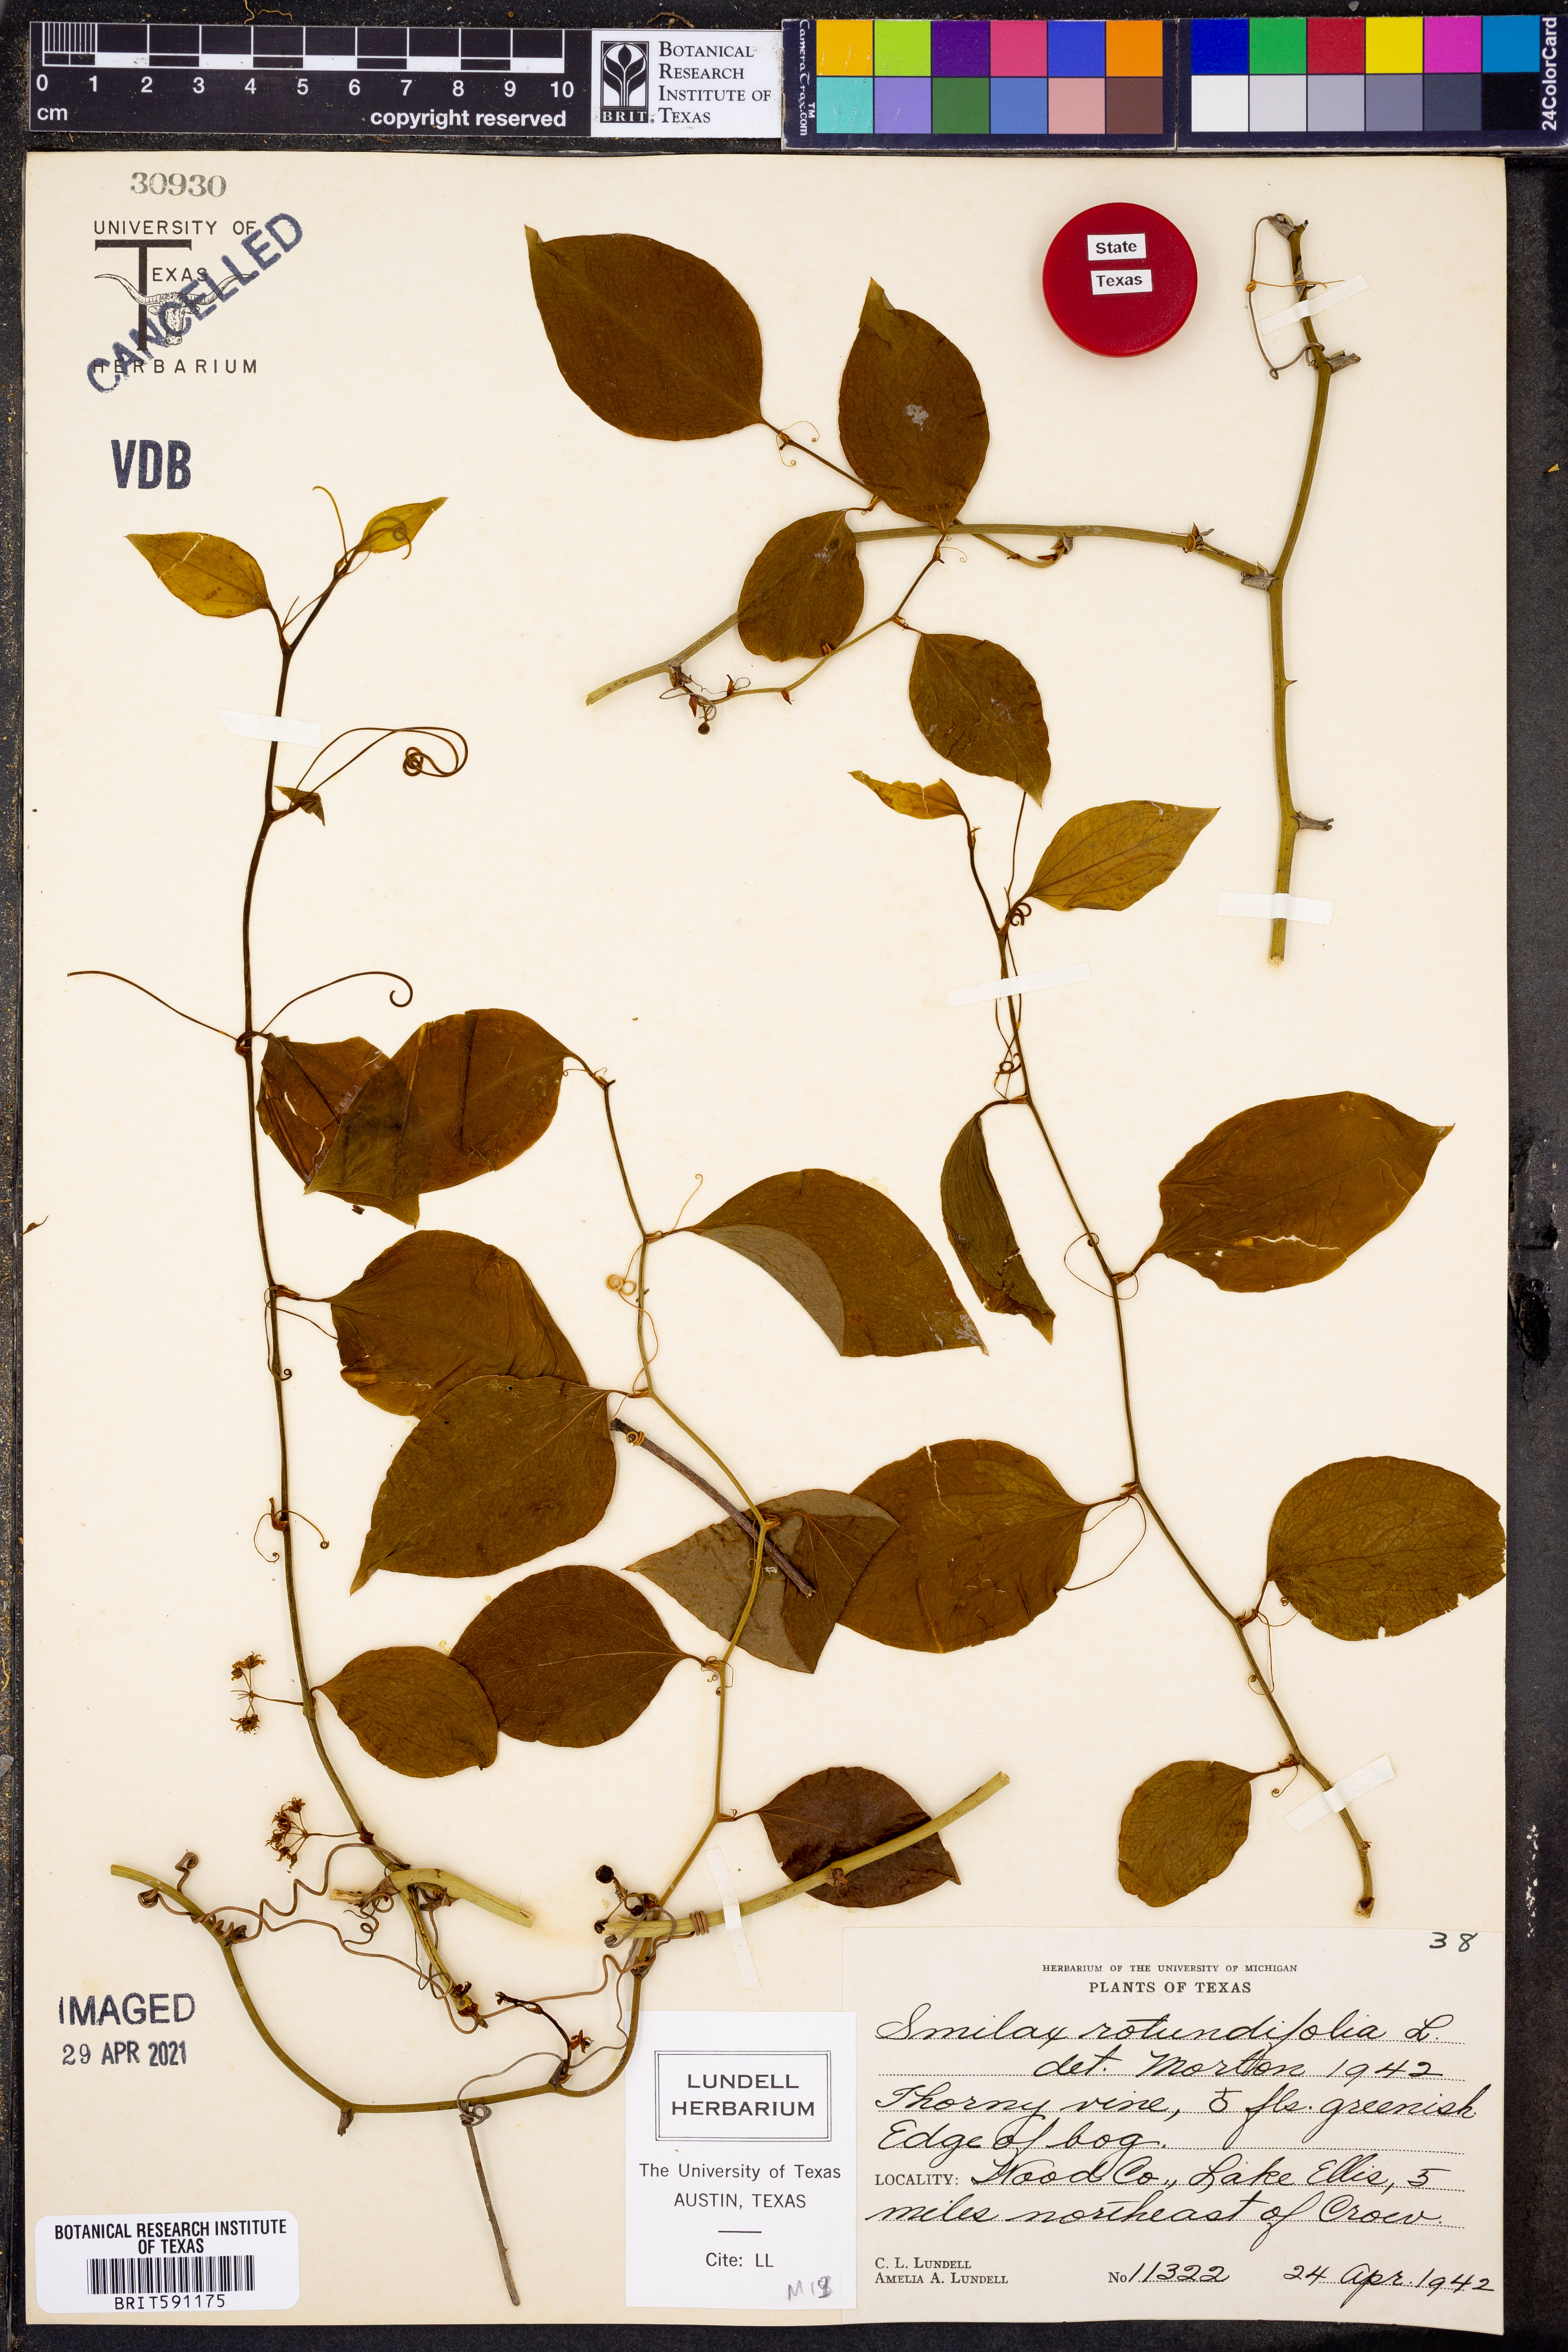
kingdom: Plantae
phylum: Tracheophyta
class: Liliopsida
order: Liliales
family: Smilacaceae
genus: Smilax
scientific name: Smilax rotundifolia
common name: Bullbriar
